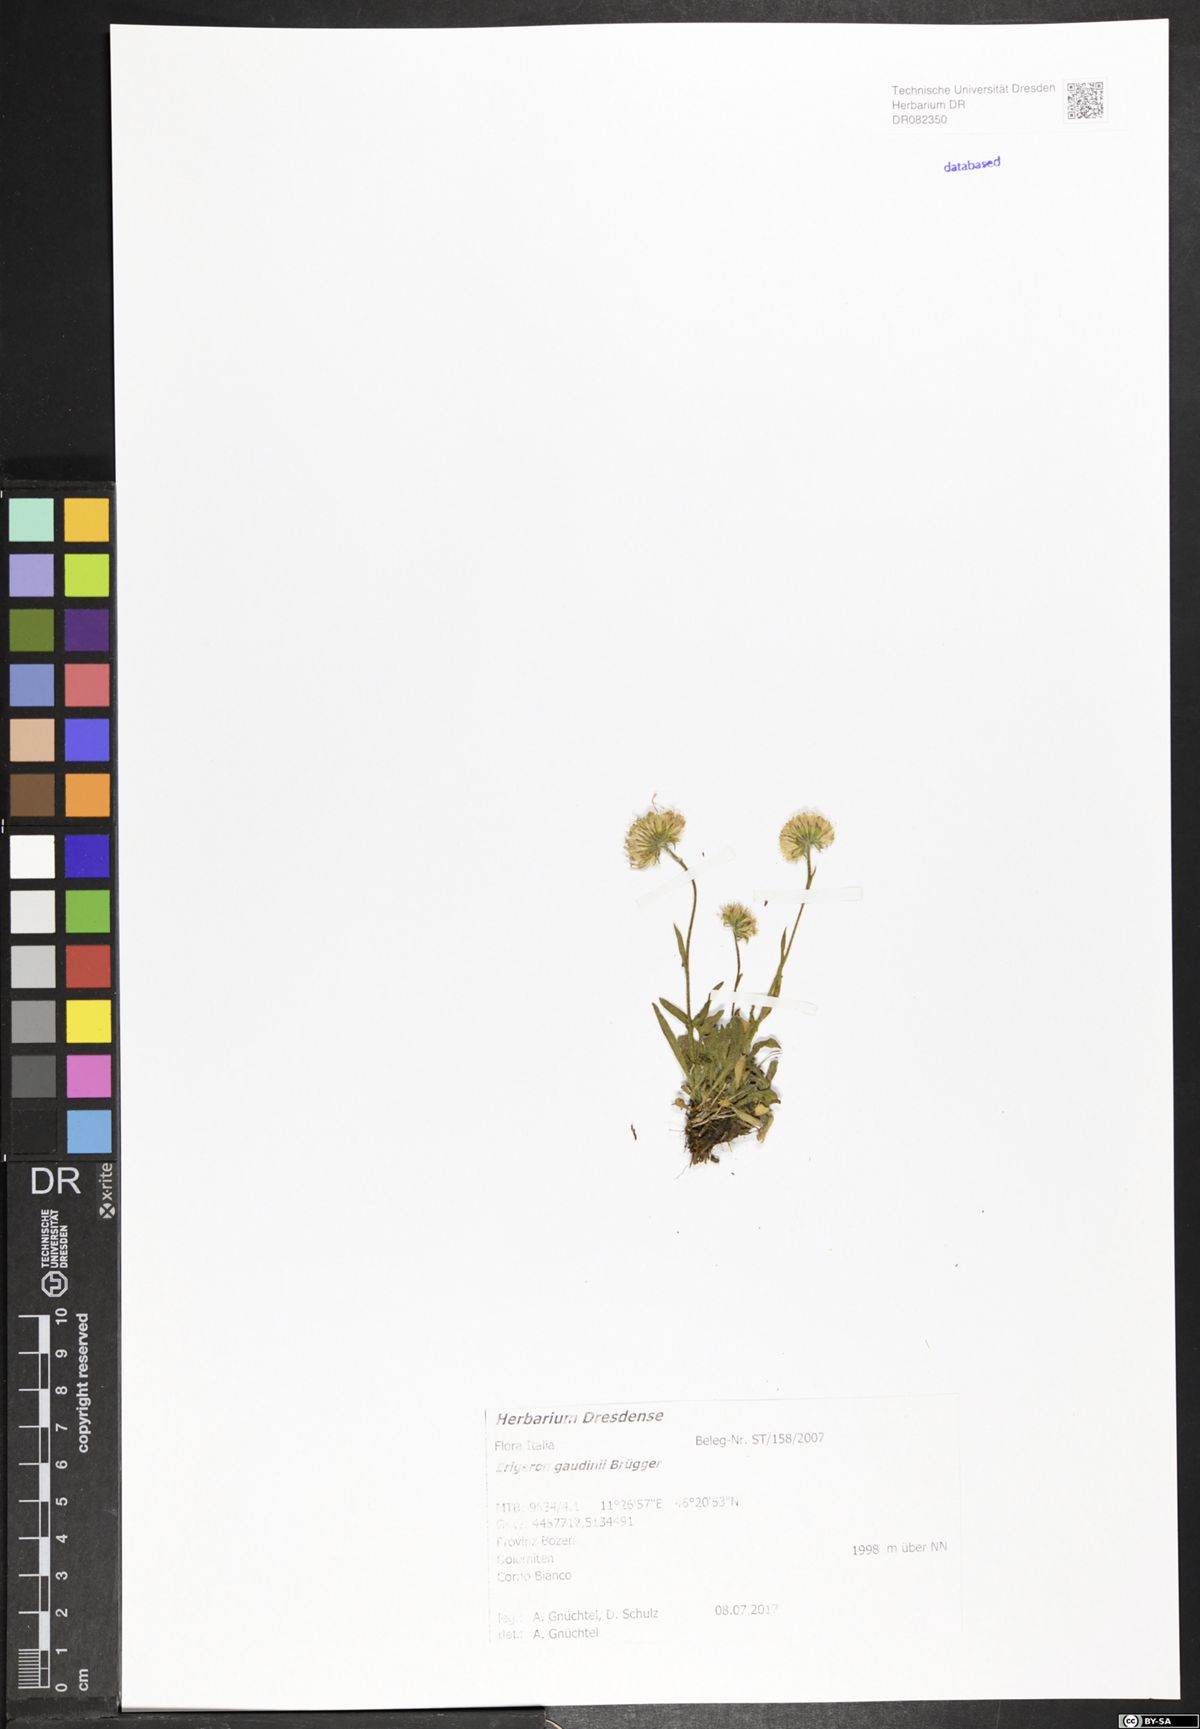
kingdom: Plantae
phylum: Tracheophyta
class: Magnoliopsida
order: Asterales
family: Asteraceae
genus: Erigeron
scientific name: Erigeron schleicheri
